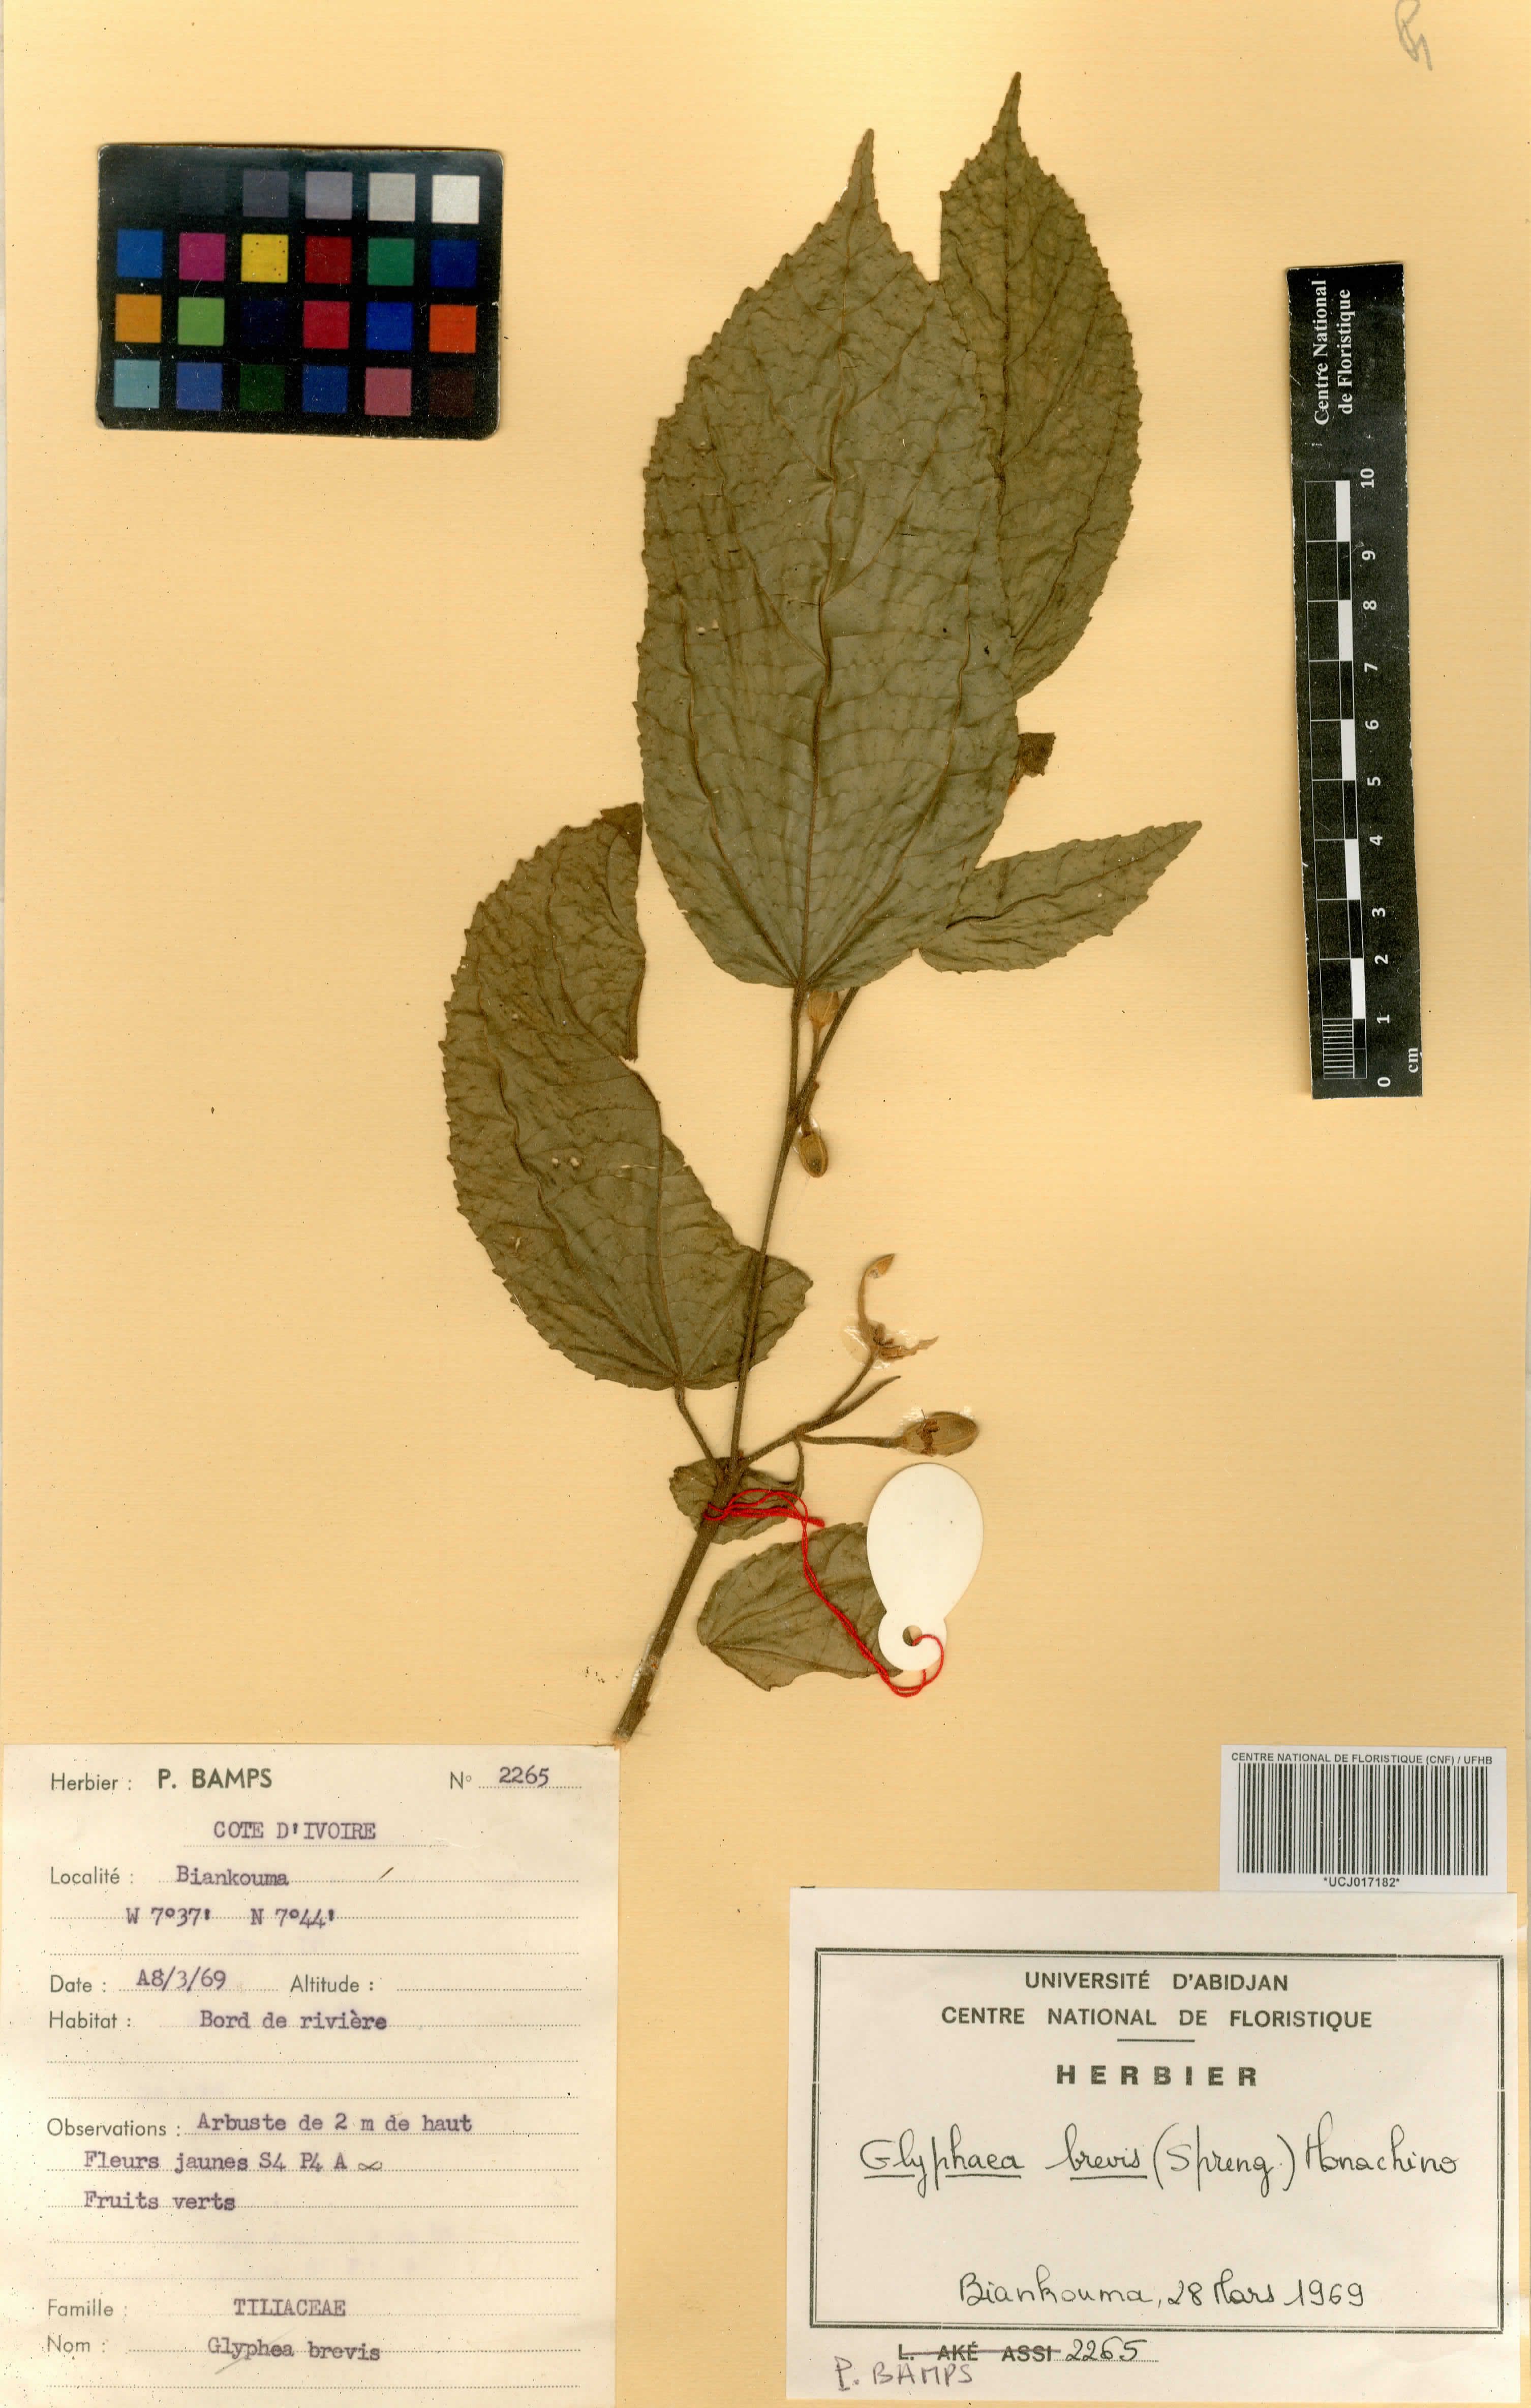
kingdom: Plantae
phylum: Tracheophyta
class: Magnoliopsida
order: Malvales
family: Malvaceae
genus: Glyphaea
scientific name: Glyphaea brevis
